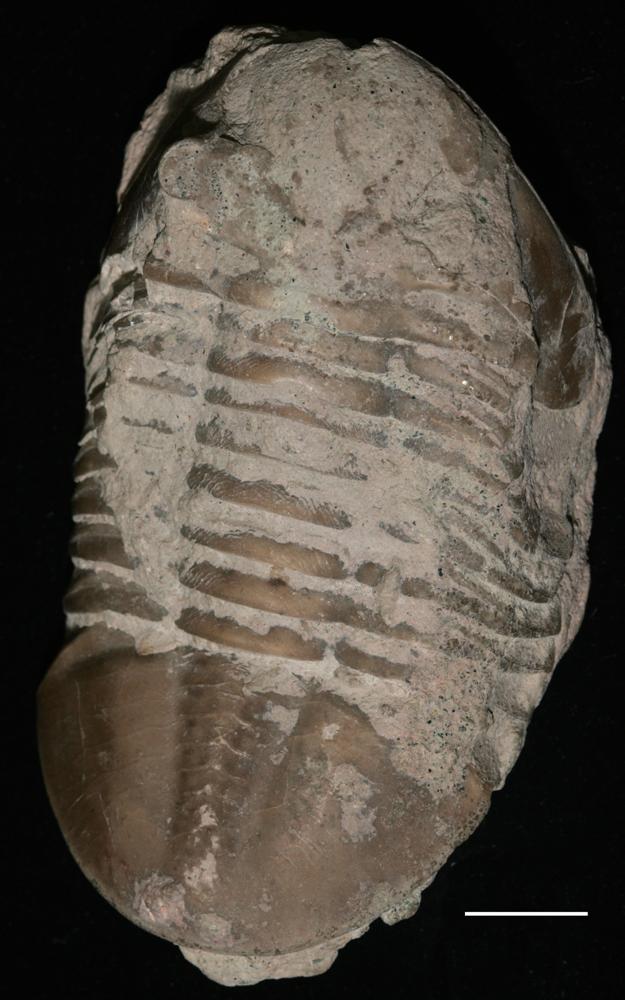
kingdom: Animalia
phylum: Arthropoda
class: Trilobita
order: Asaphida
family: Asaphidae
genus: Asaphus
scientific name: Asaphus lepidurus
